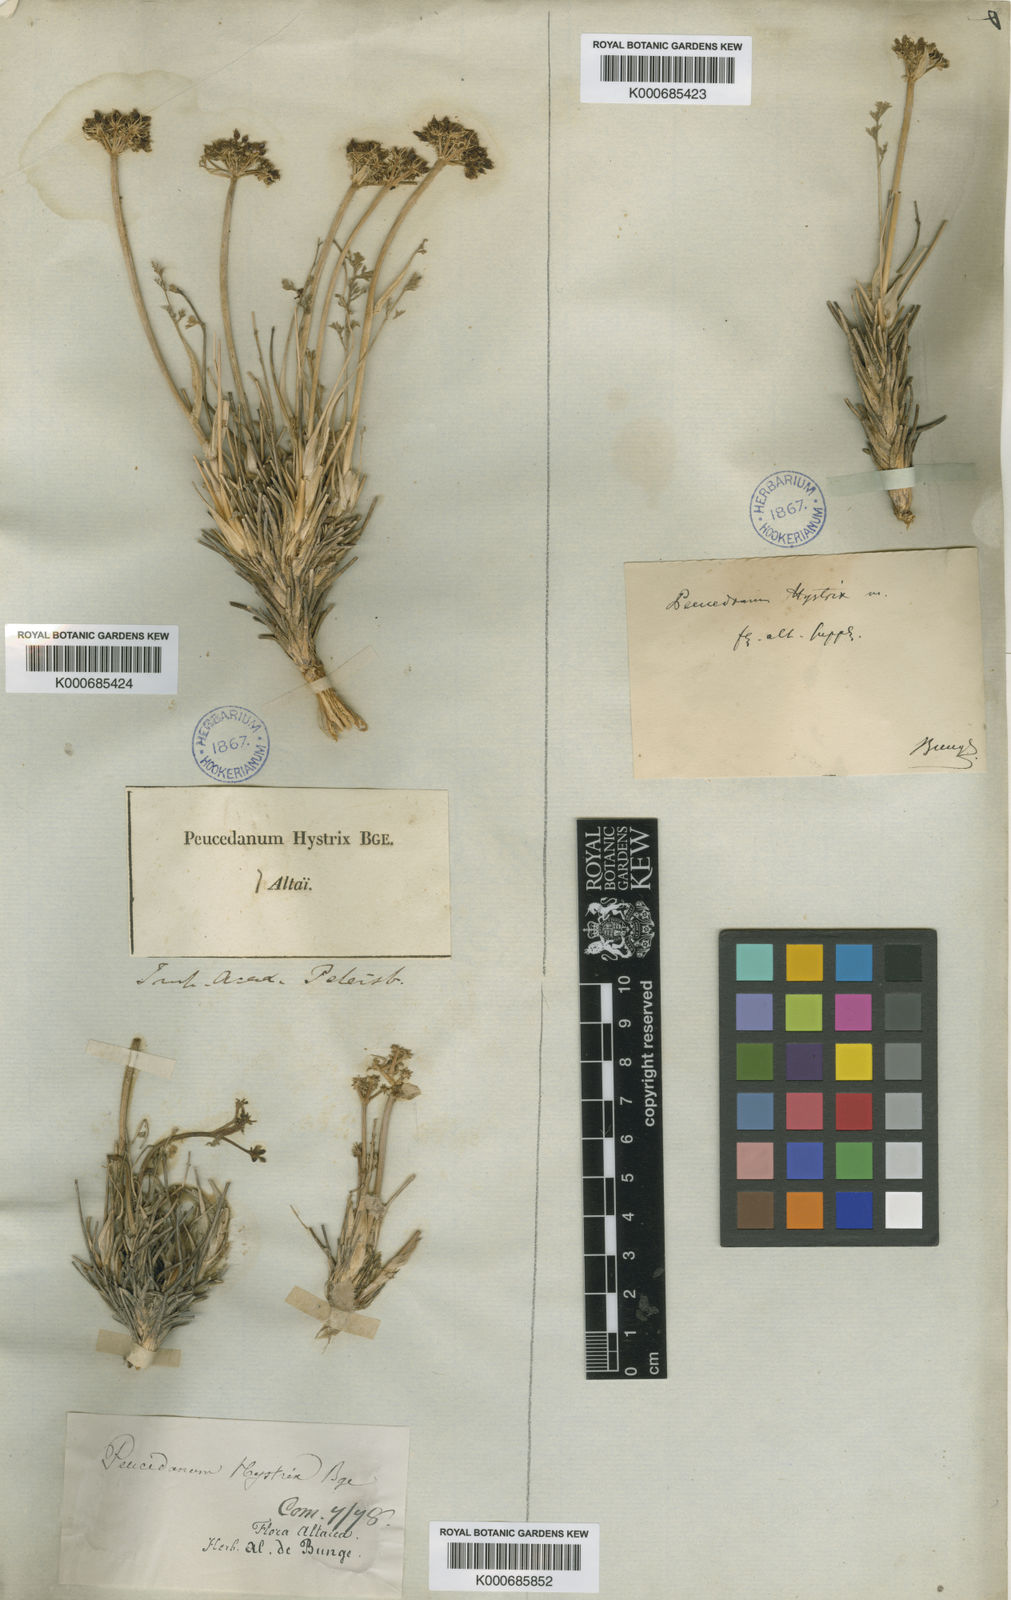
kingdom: Plantae
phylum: Tracheophyta
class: Magnoliopsida
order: Apiales
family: Apiaceae
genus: Ferulopsis
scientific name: Ferulopsis hystrix
